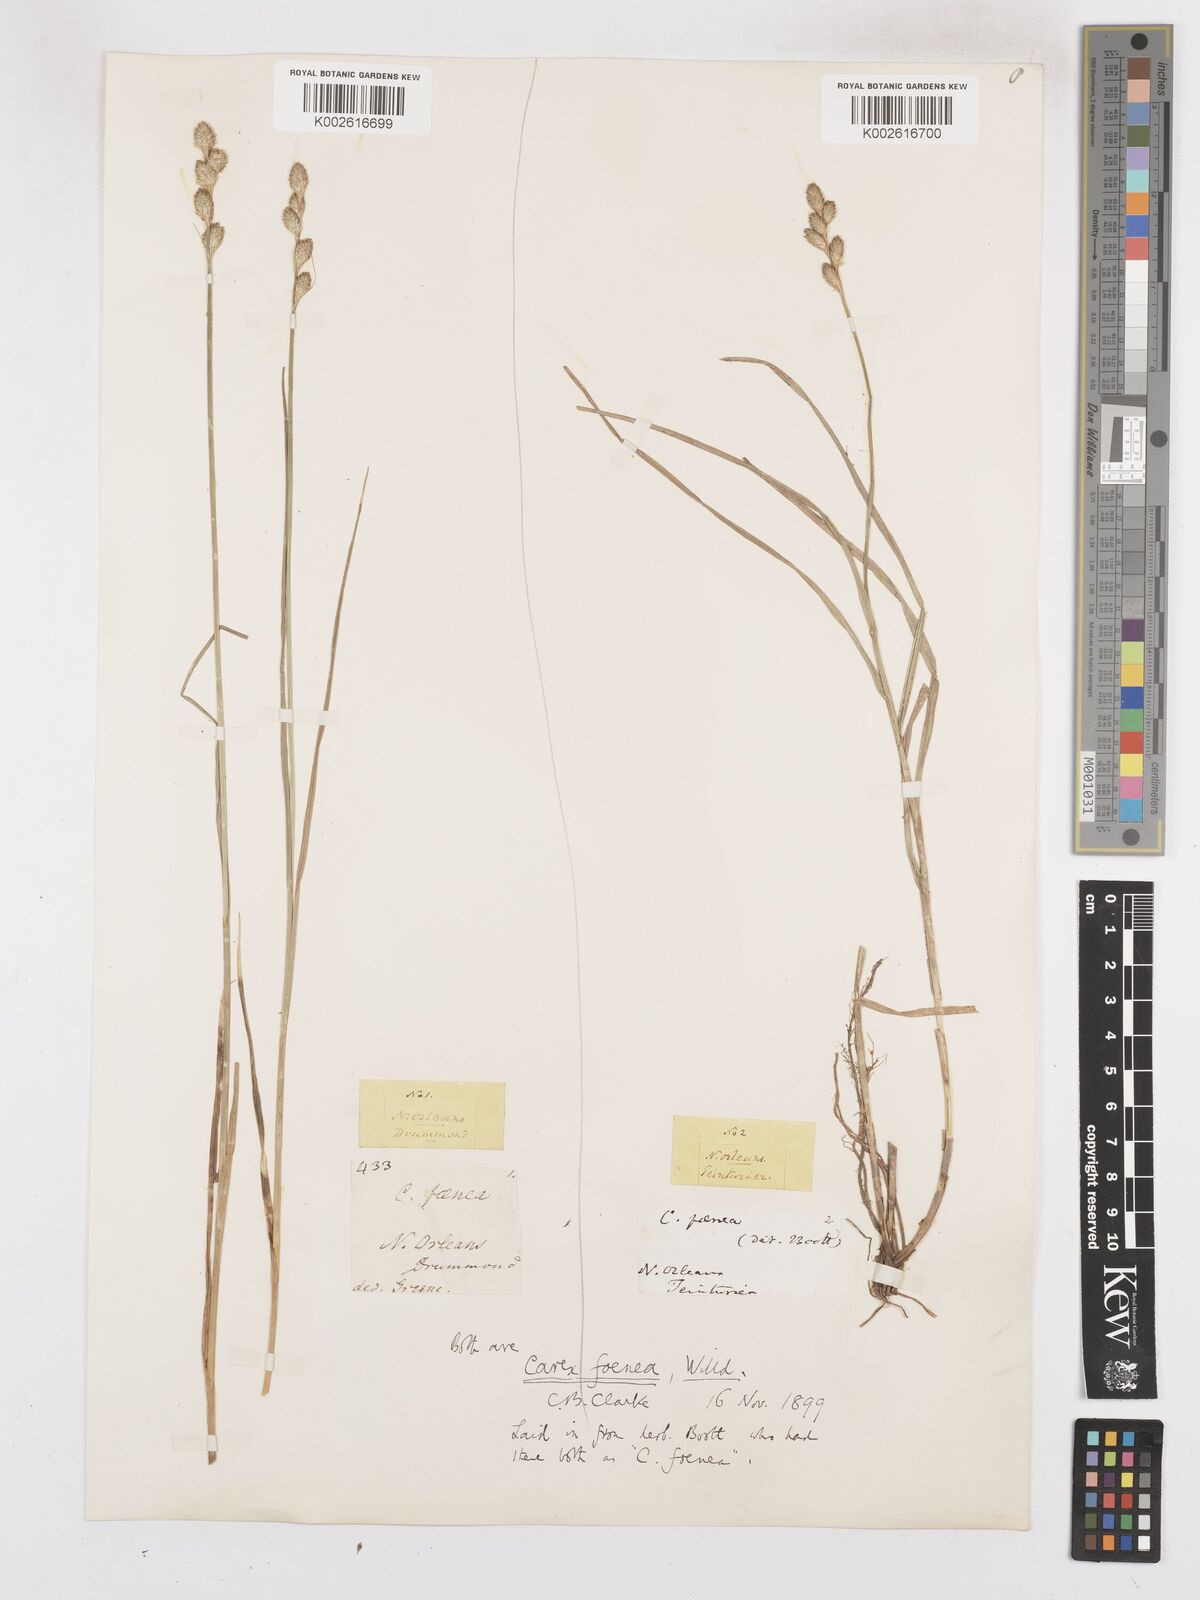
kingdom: Plantae
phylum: Tracheophyta
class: Liliopsida
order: Poales
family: Cyperaceae
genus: Carex
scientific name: Carex argyrantha
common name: Silvery-flowered sedge
